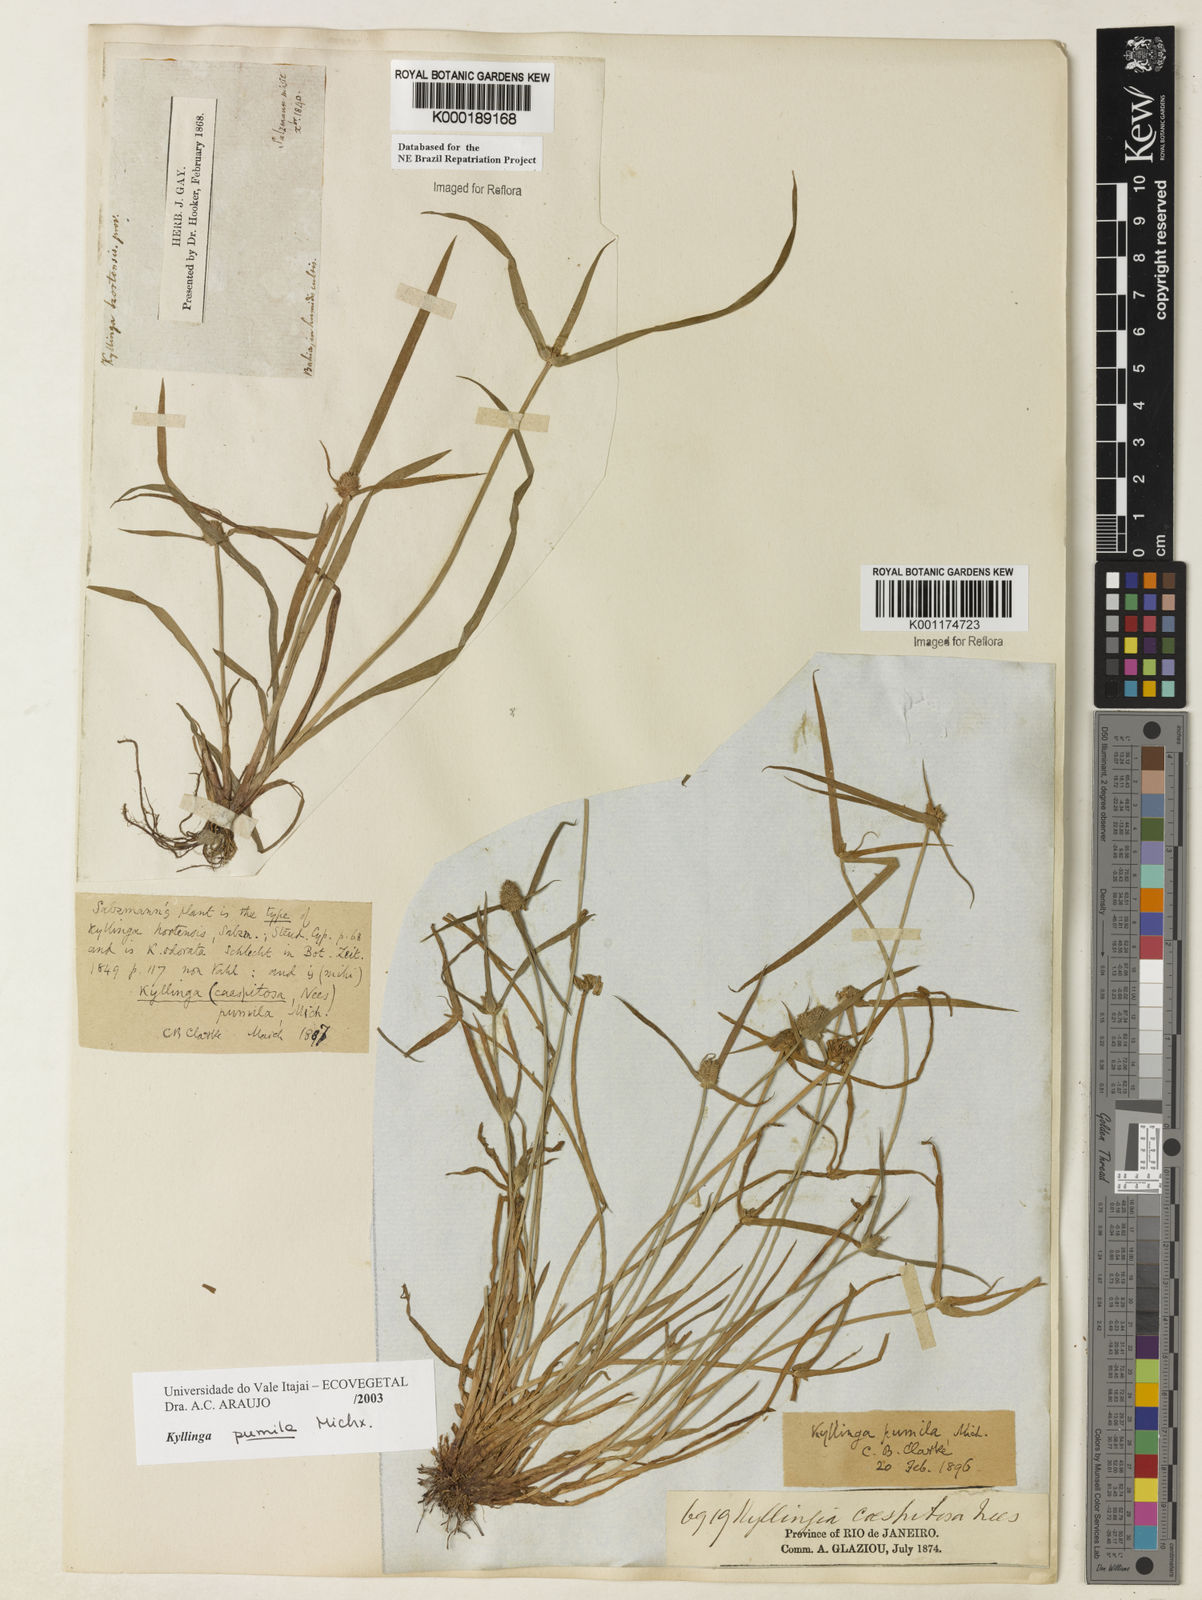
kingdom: Plantae
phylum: Tracheophyta
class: Liliopsida
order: Poales
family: Cyperaceae
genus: Cyperus
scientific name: Cyperus hortensis
